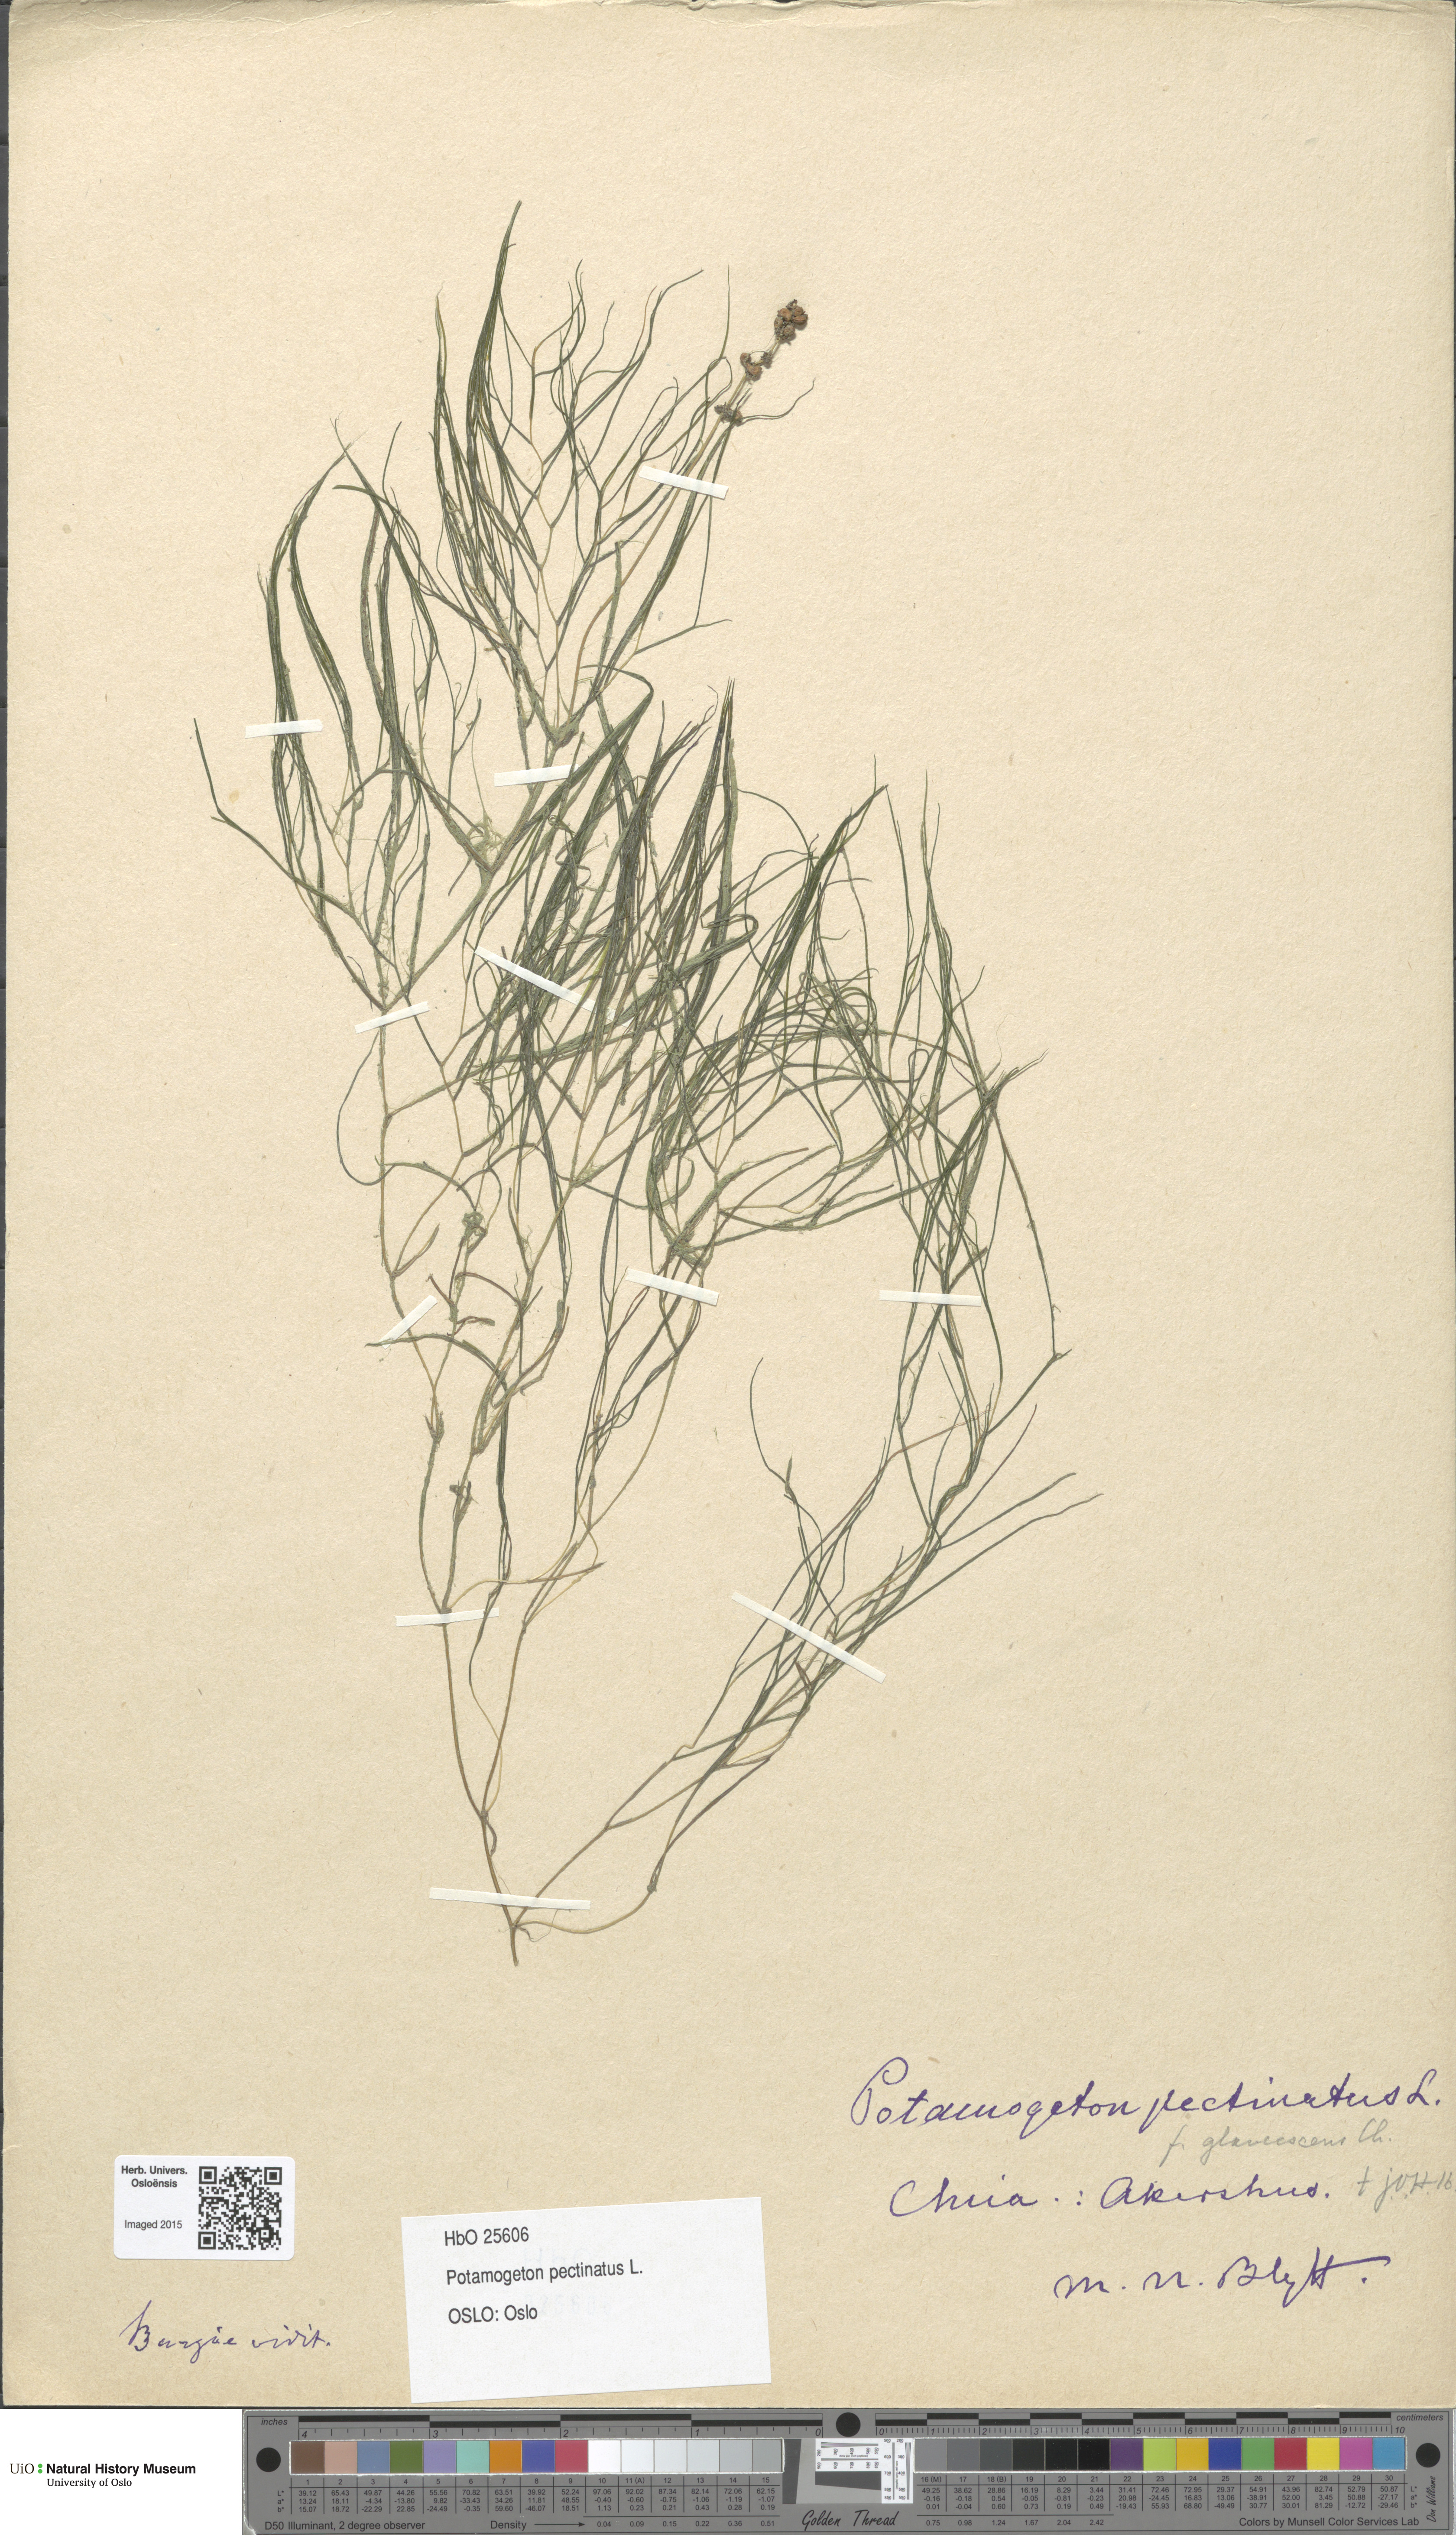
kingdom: Plantae
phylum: Tracheophyta
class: Liliopsida
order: Alismatales
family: Potamogetonaceae
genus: Stuckenia
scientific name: Stuckenia pectinata
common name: Sago pondweed
